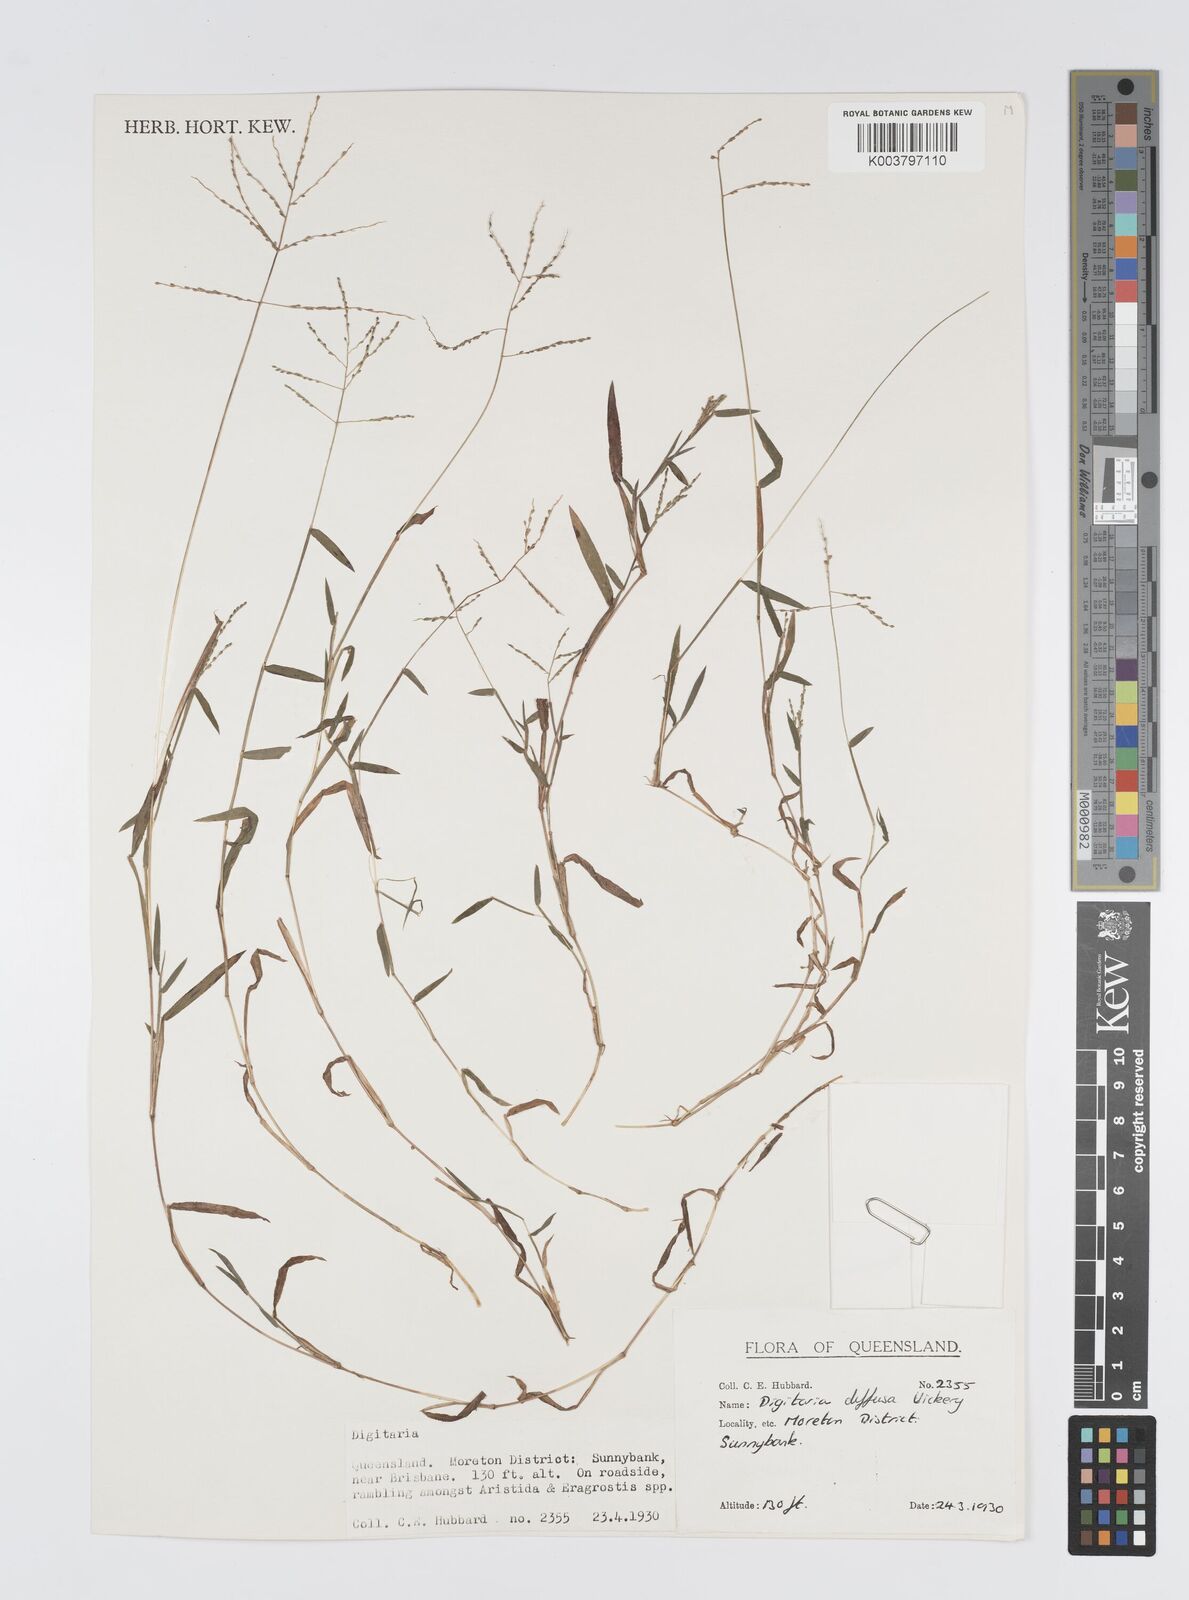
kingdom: Plantae
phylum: Tracheophyta
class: Liliopsida
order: Poales
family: Poaceae
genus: Digitaria
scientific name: Digitaria diffusa
